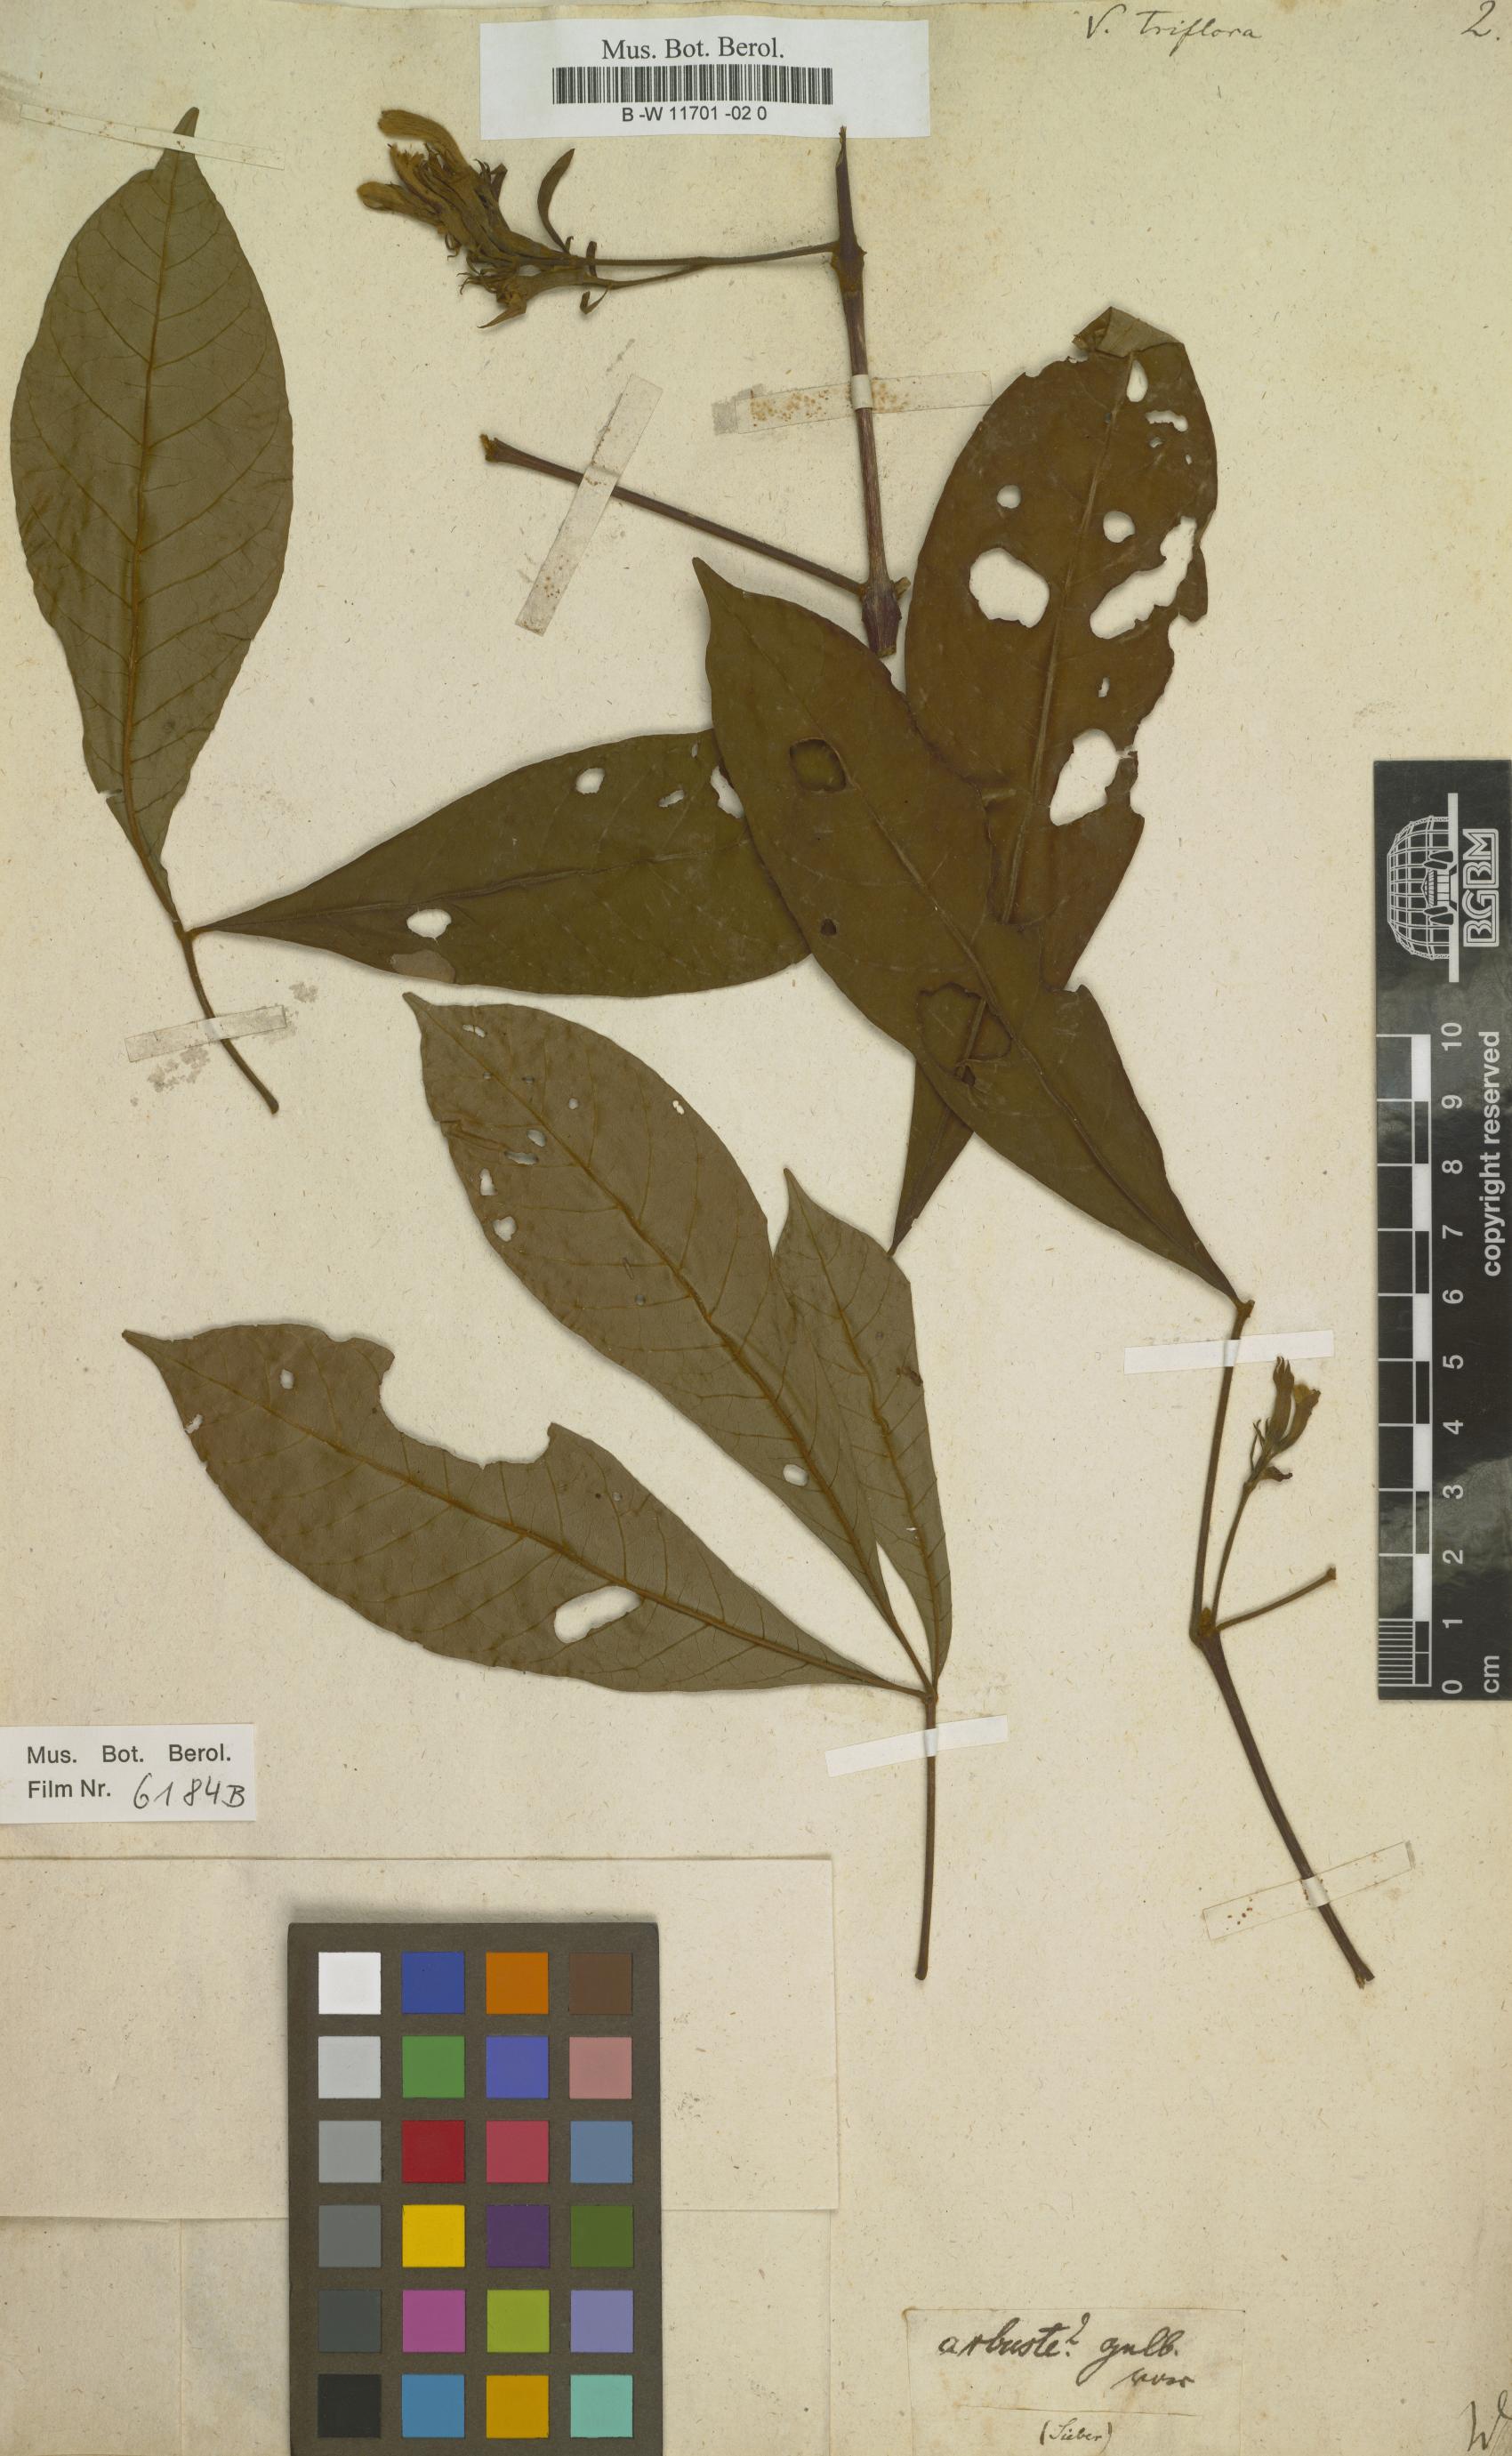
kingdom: Plantae
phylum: Tracheophyta
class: Magnoliopsida
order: Lamiales
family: Lamiaceae
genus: Vitex
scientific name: Vitex triflora
